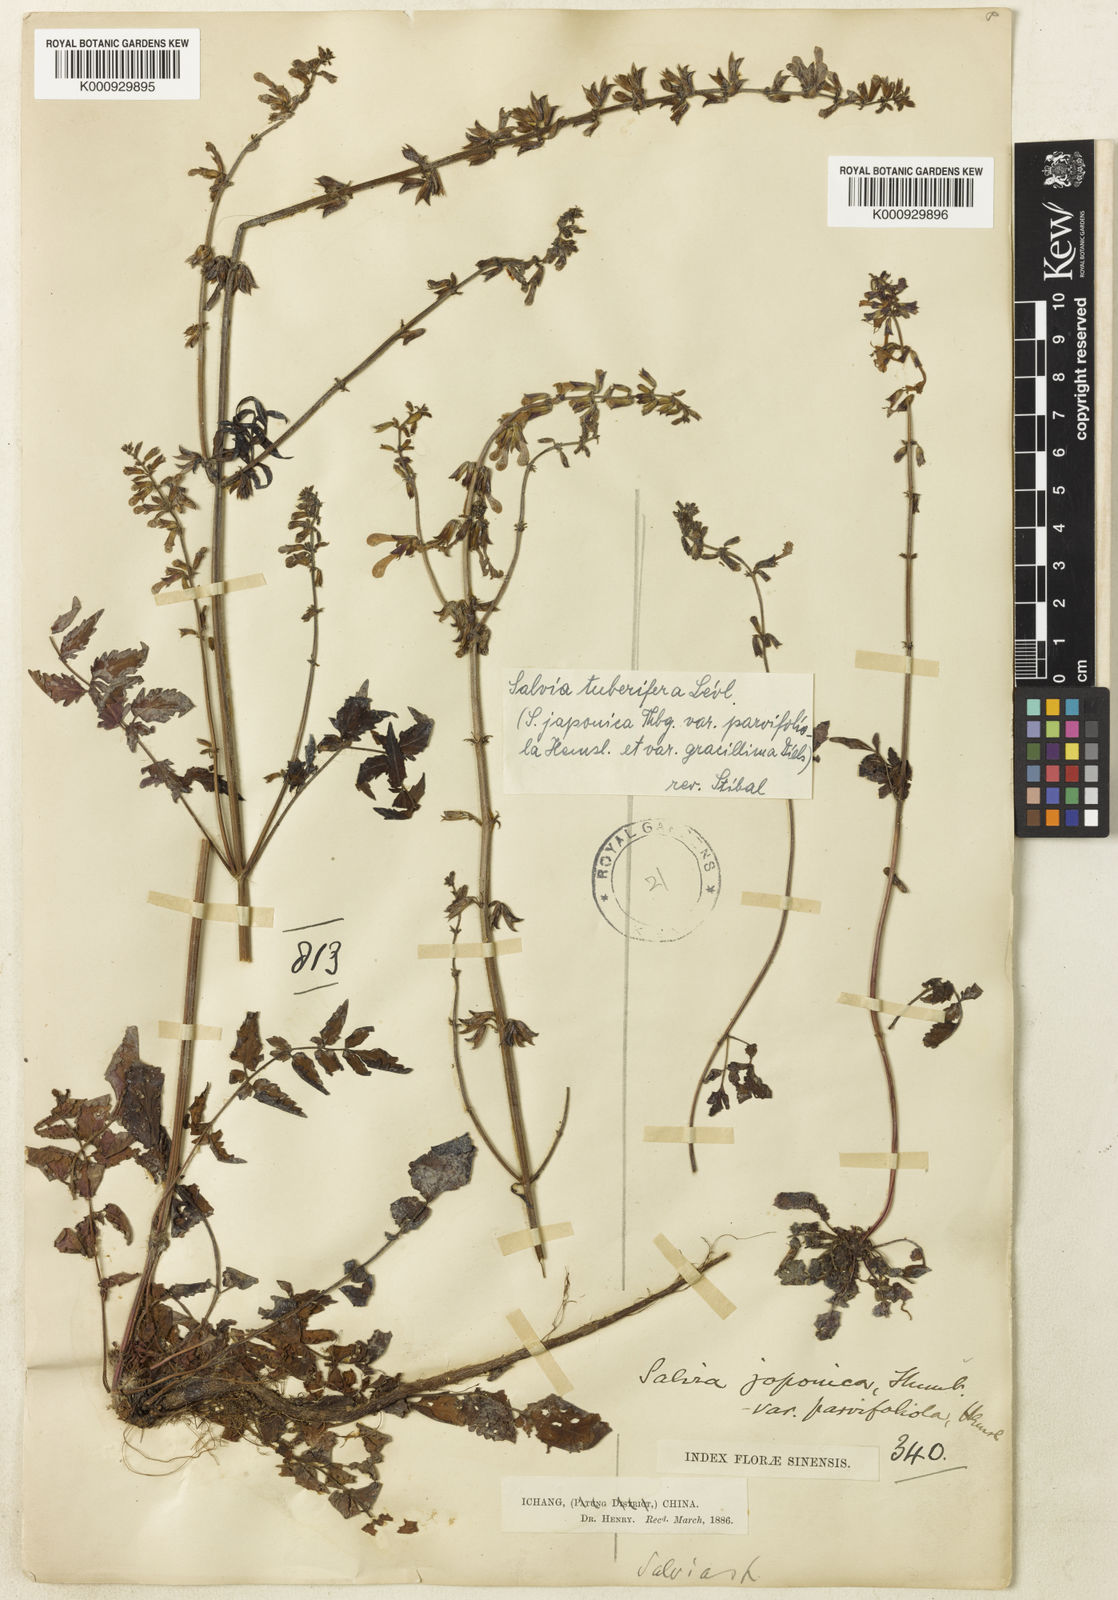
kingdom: Plantae
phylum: Tracheophyta
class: Magnoliopsida
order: Lamiales
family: Lamiaceae
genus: Salvia
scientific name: Salvia
